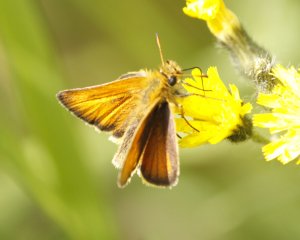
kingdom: Animalia
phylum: Arthropoda
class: Insecta
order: Lepidoptera
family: Hesperiidae
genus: Thymelicus
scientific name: Thymelicus lineola
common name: European Skipper
